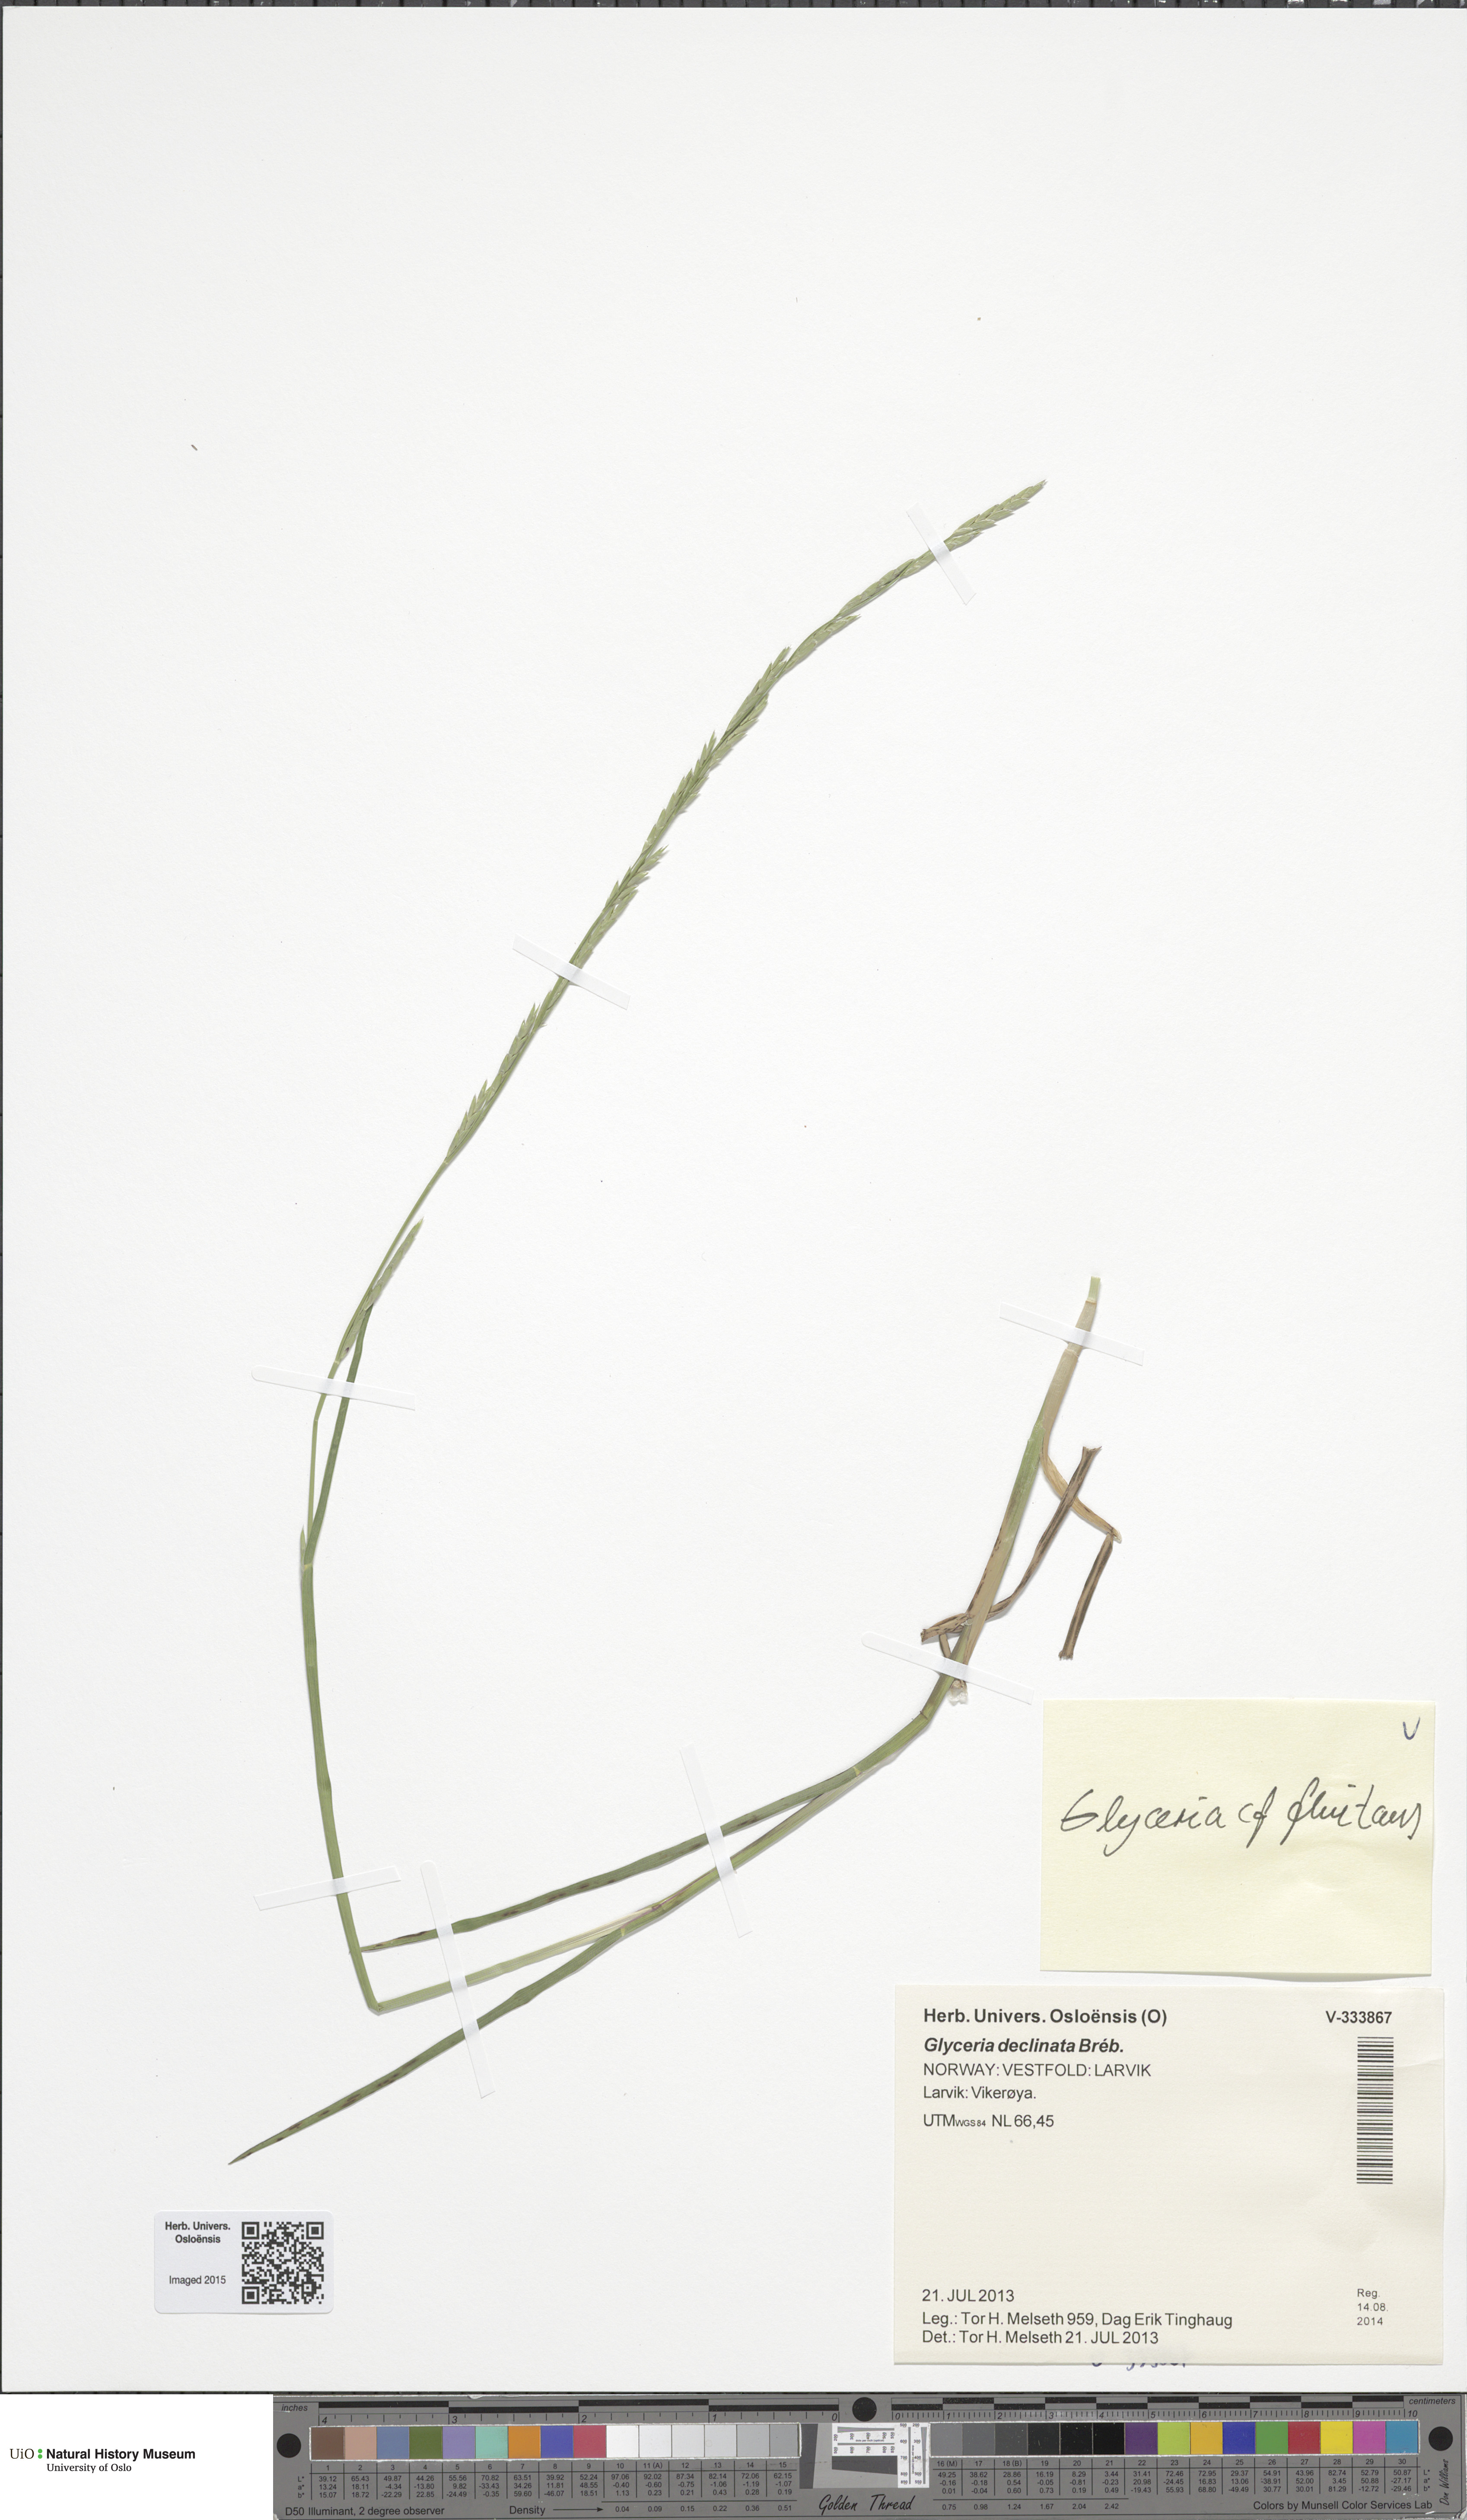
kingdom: Plantae
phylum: Tracheophyta
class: Liliopsida
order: Poales
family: Poaceae
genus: Glyceria
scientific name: Glyceria fluitans
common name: Floating sweet-grass
